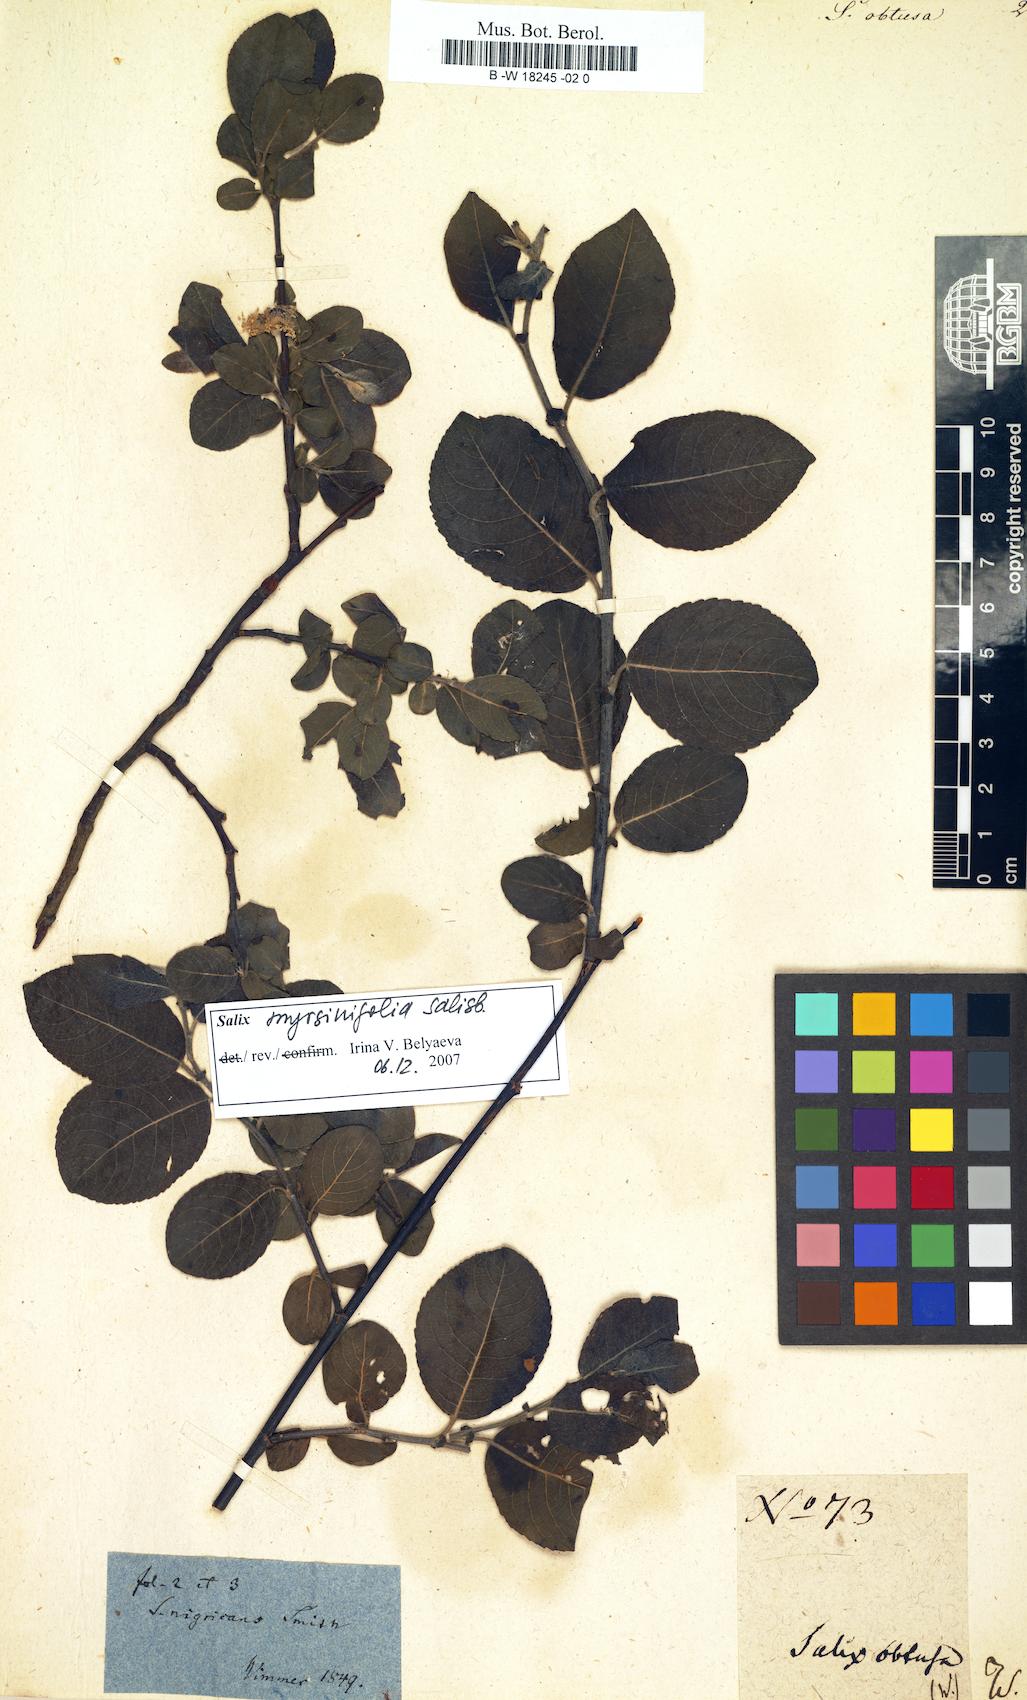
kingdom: Plantae
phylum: Tracheophyta
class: Magnoliopsida
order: Malpighiales
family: Salicaceae
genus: Salix
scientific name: Salix obtusa
